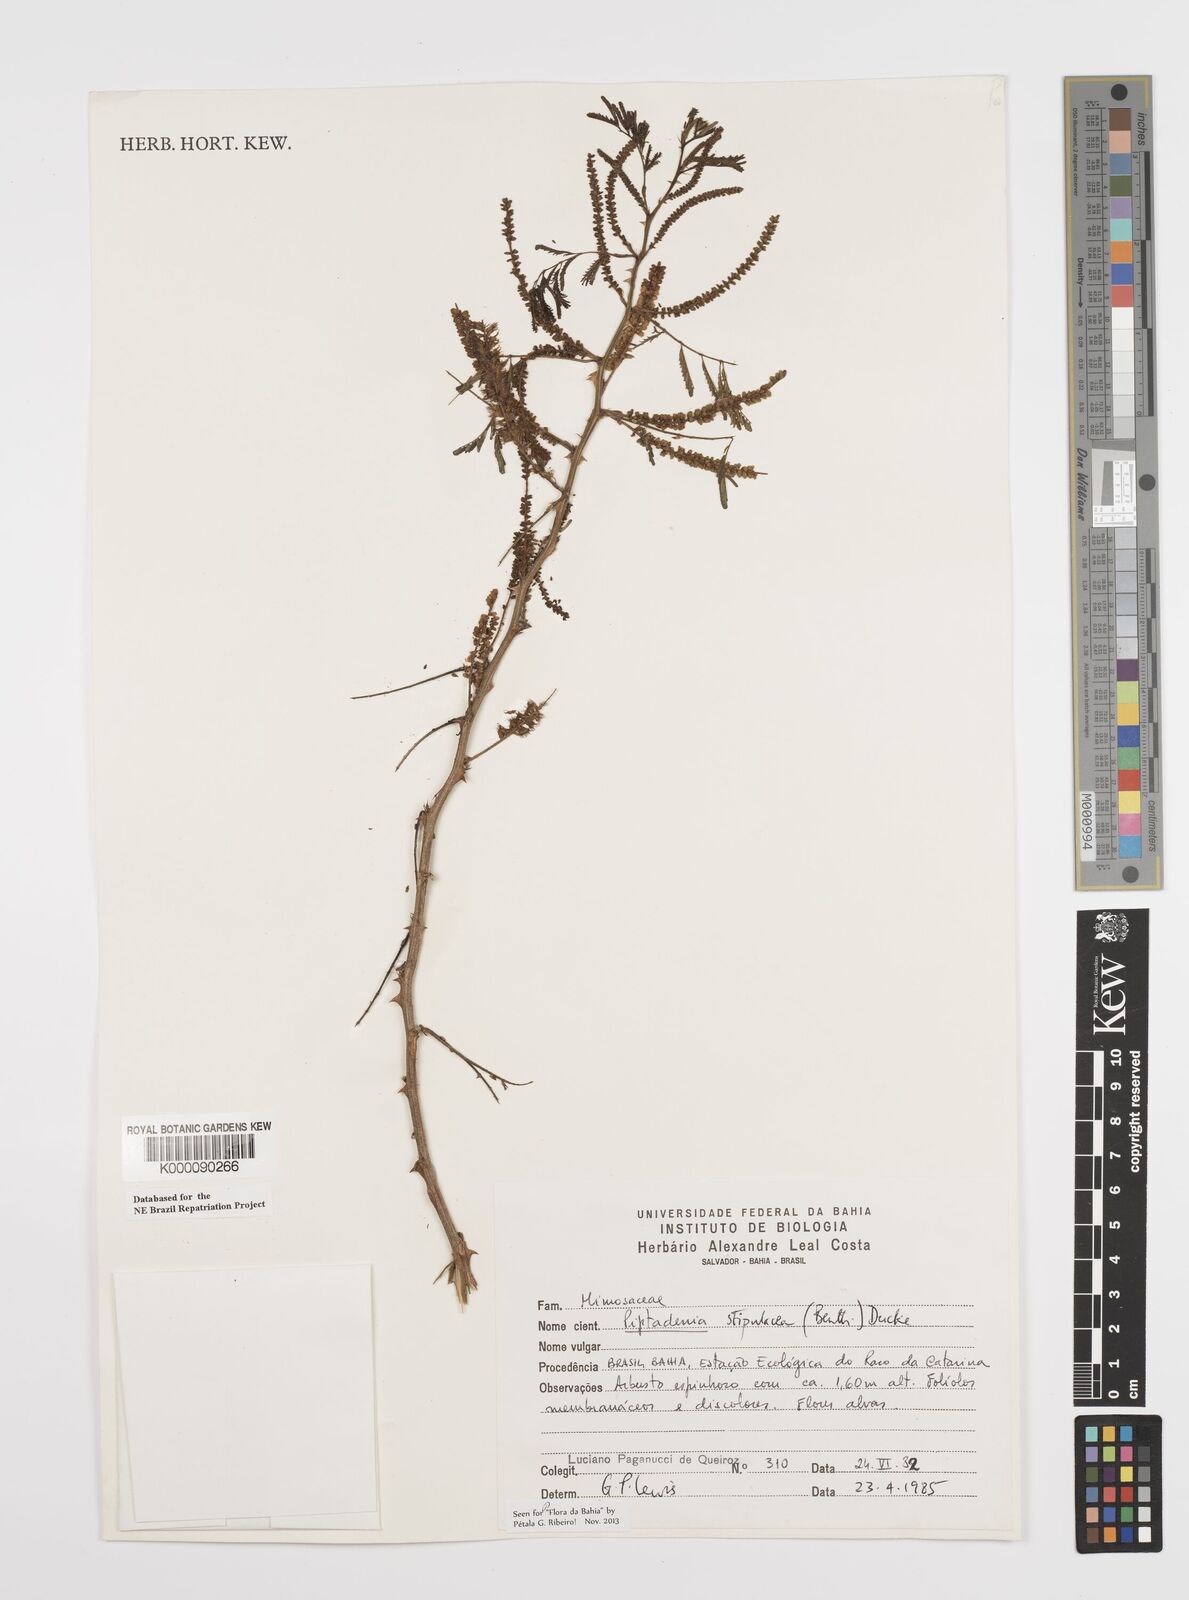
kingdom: Plantae
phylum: Tracheophyta
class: Magnoliopsida
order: Fabales
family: Fabaceae
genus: Piptadenia
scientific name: Piptadenia retusa
